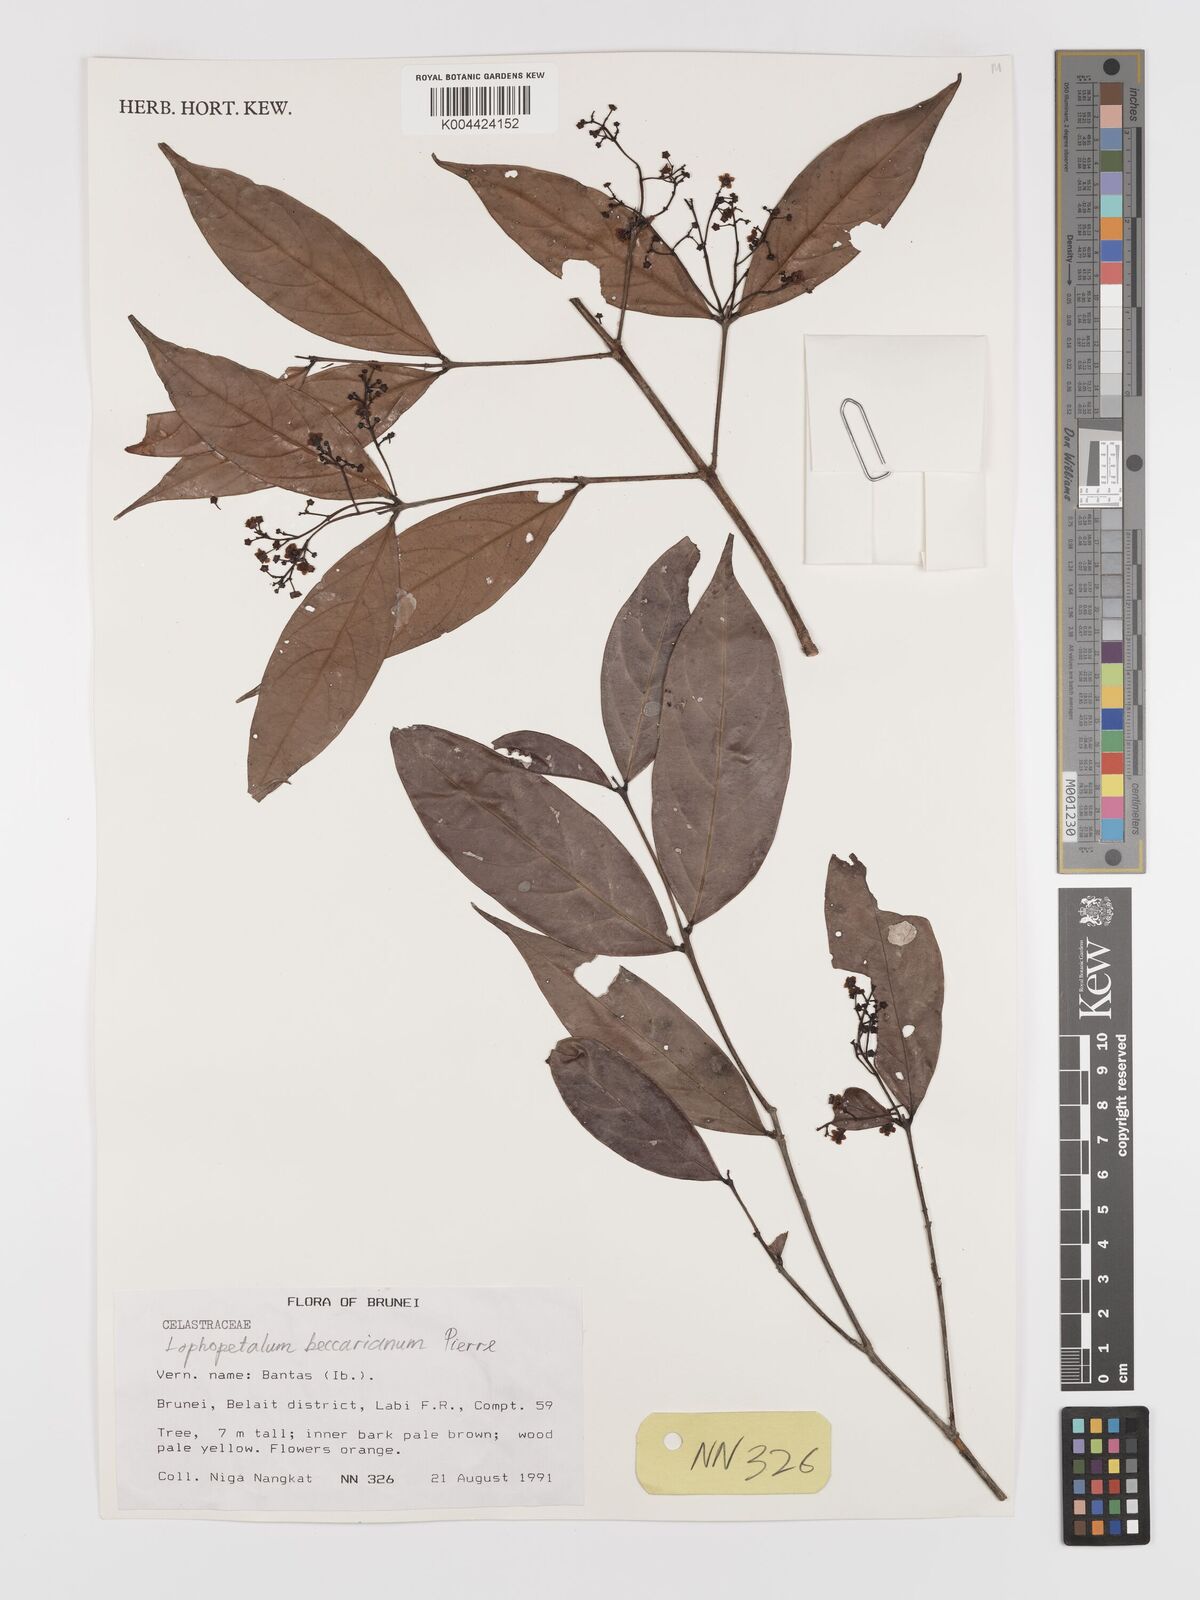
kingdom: Plantae
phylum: Tracheophyta
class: Magnoliopsida
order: Celastrales
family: Celastraceae
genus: Lophopetalum
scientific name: Lophopetalum beccarianum
